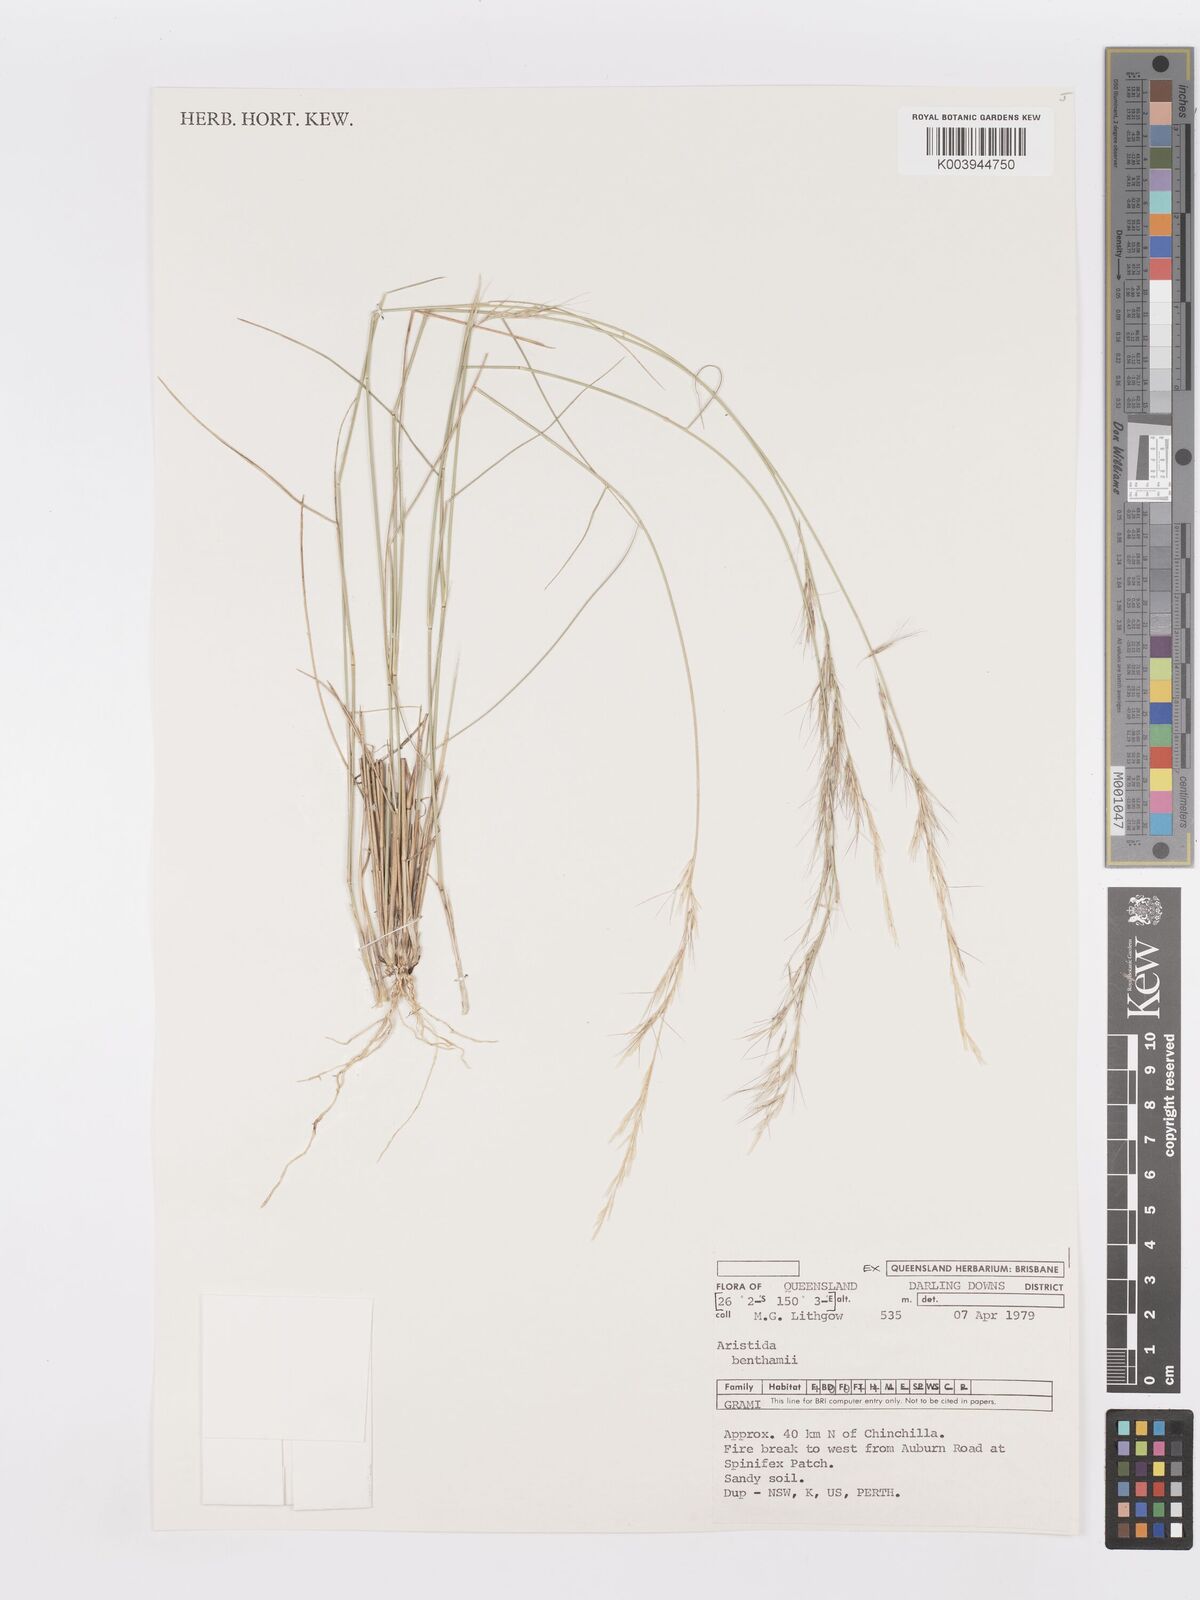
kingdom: Plantae
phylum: Tracheophyta
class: Liliopsida
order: Poales
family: Poaceae
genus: Aristida
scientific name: Aristida benthamii
